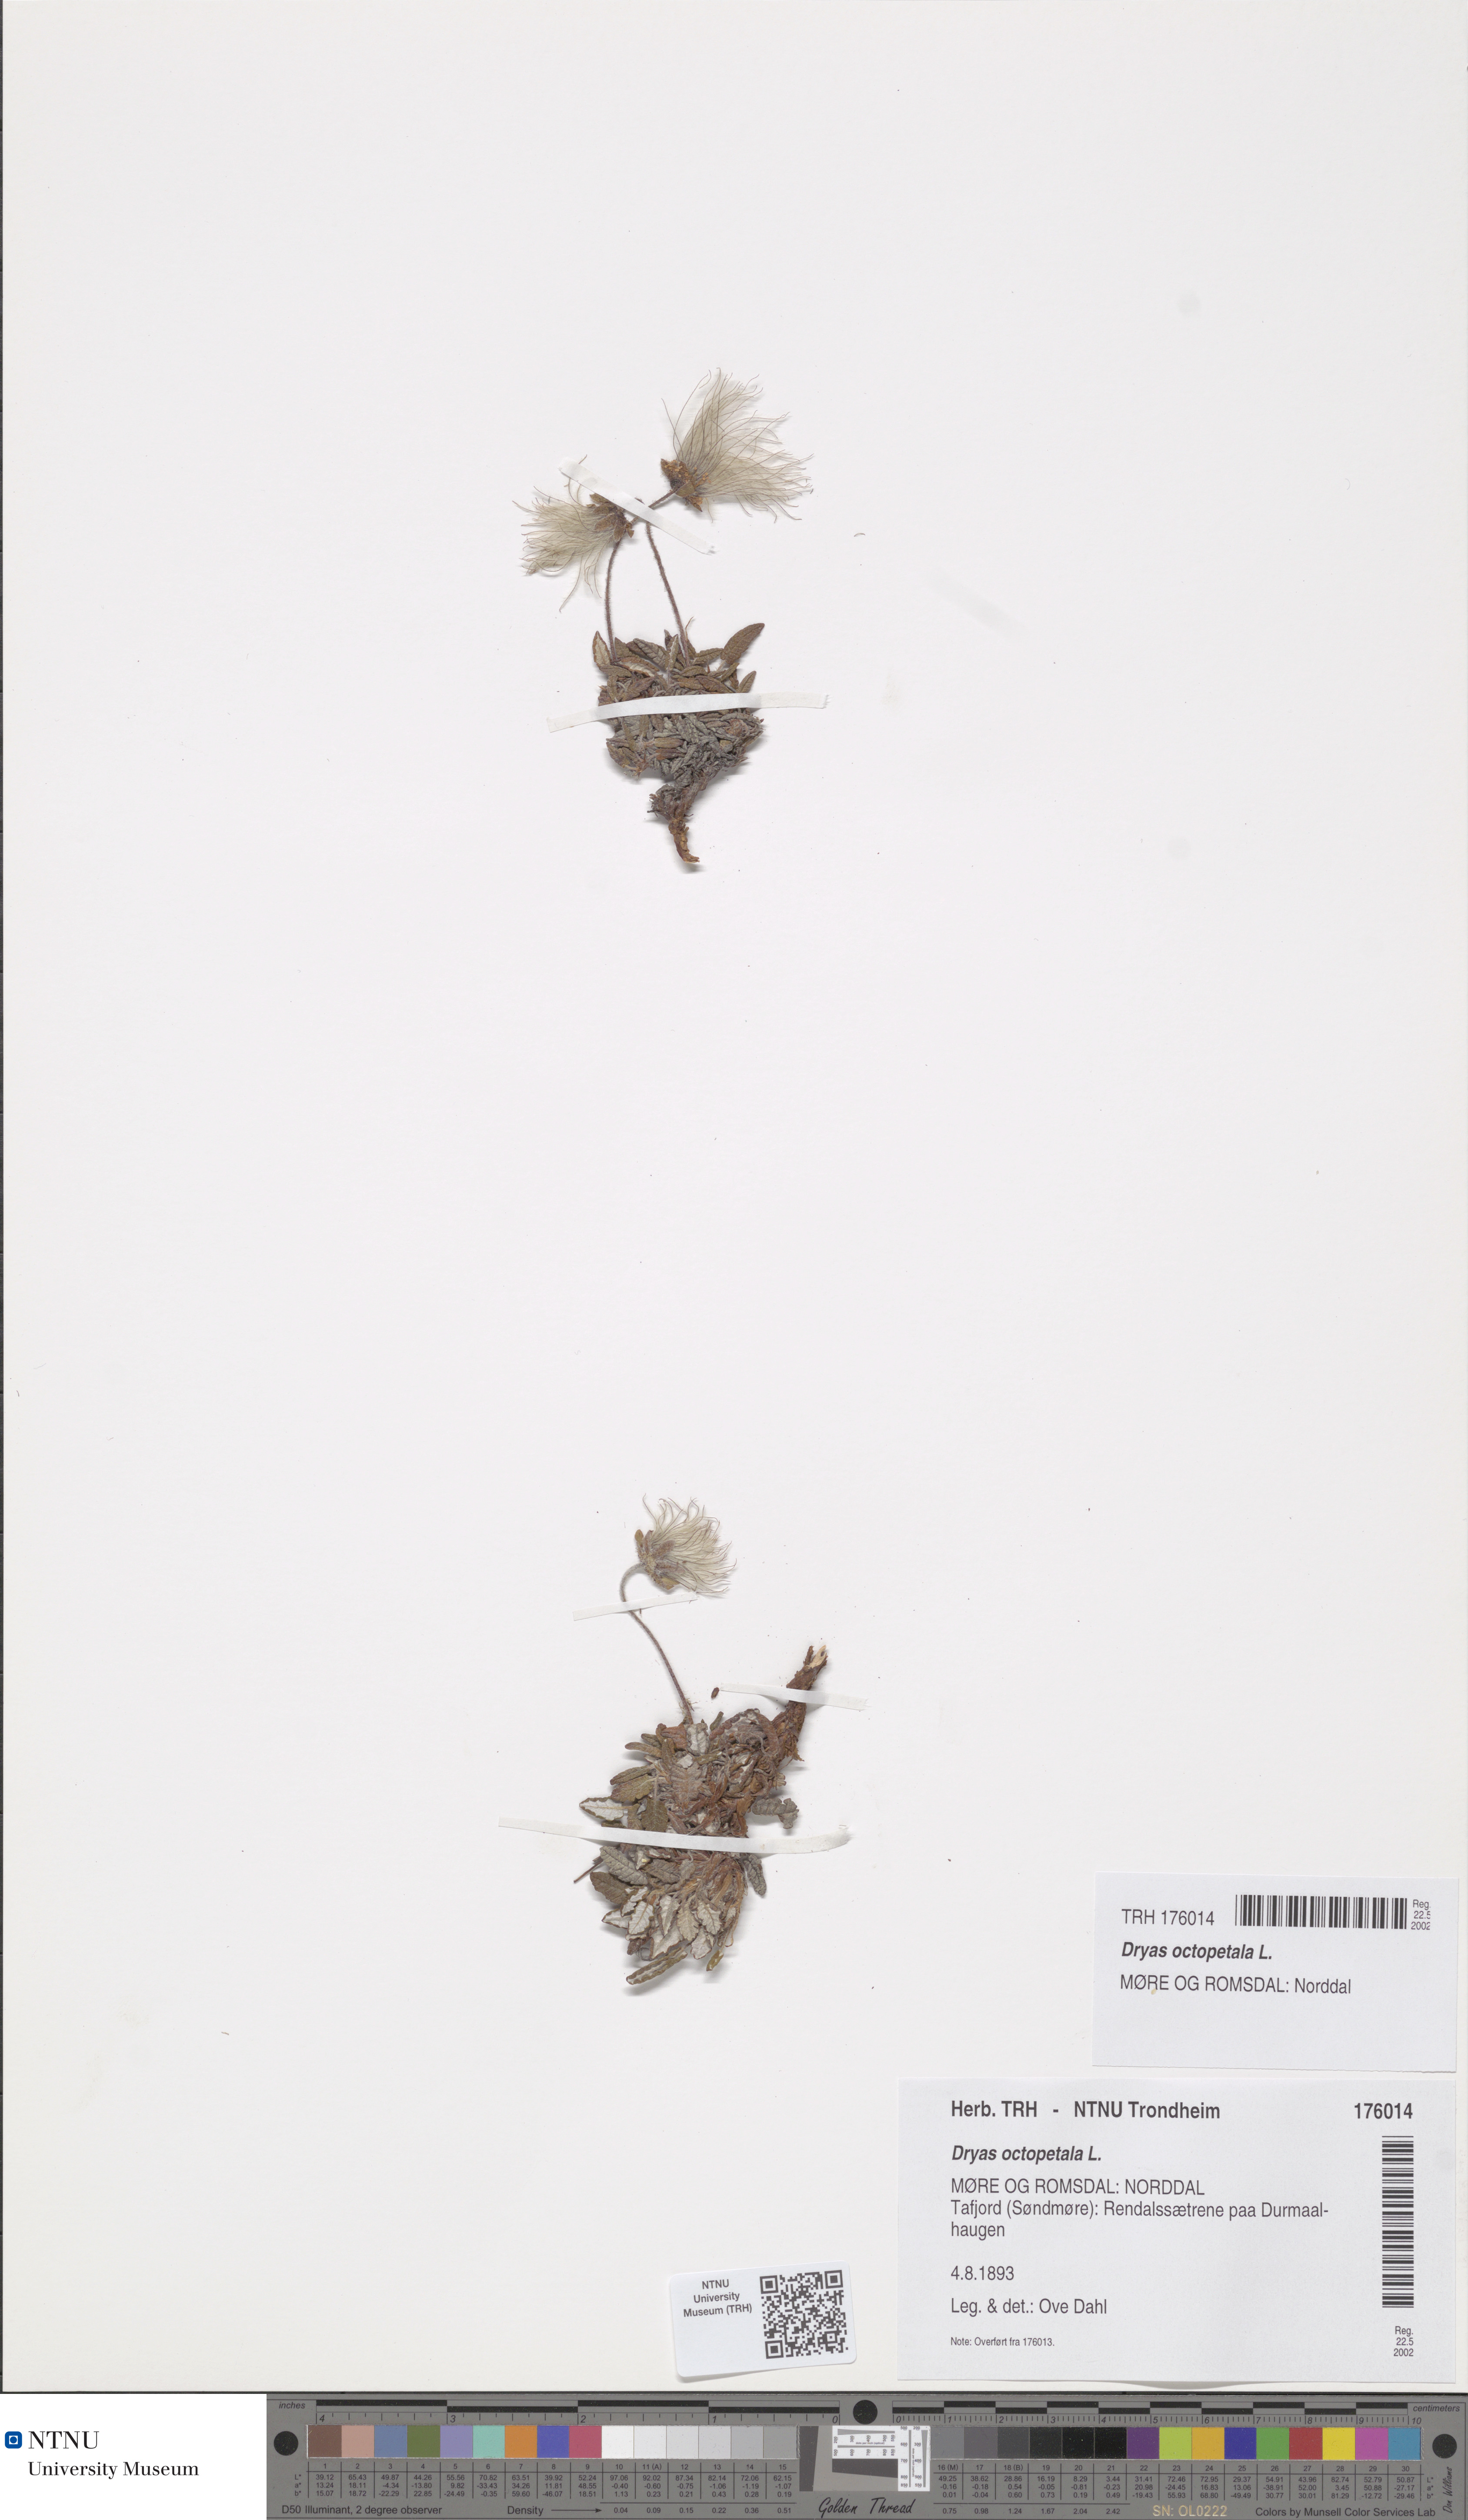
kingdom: Plantae
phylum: Tracheophyta
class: Magnoliopsida
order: Rosales
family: Rosaceae
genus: Dryas
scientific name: Dryas octopetala
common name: Eight-petal mountain-avens
